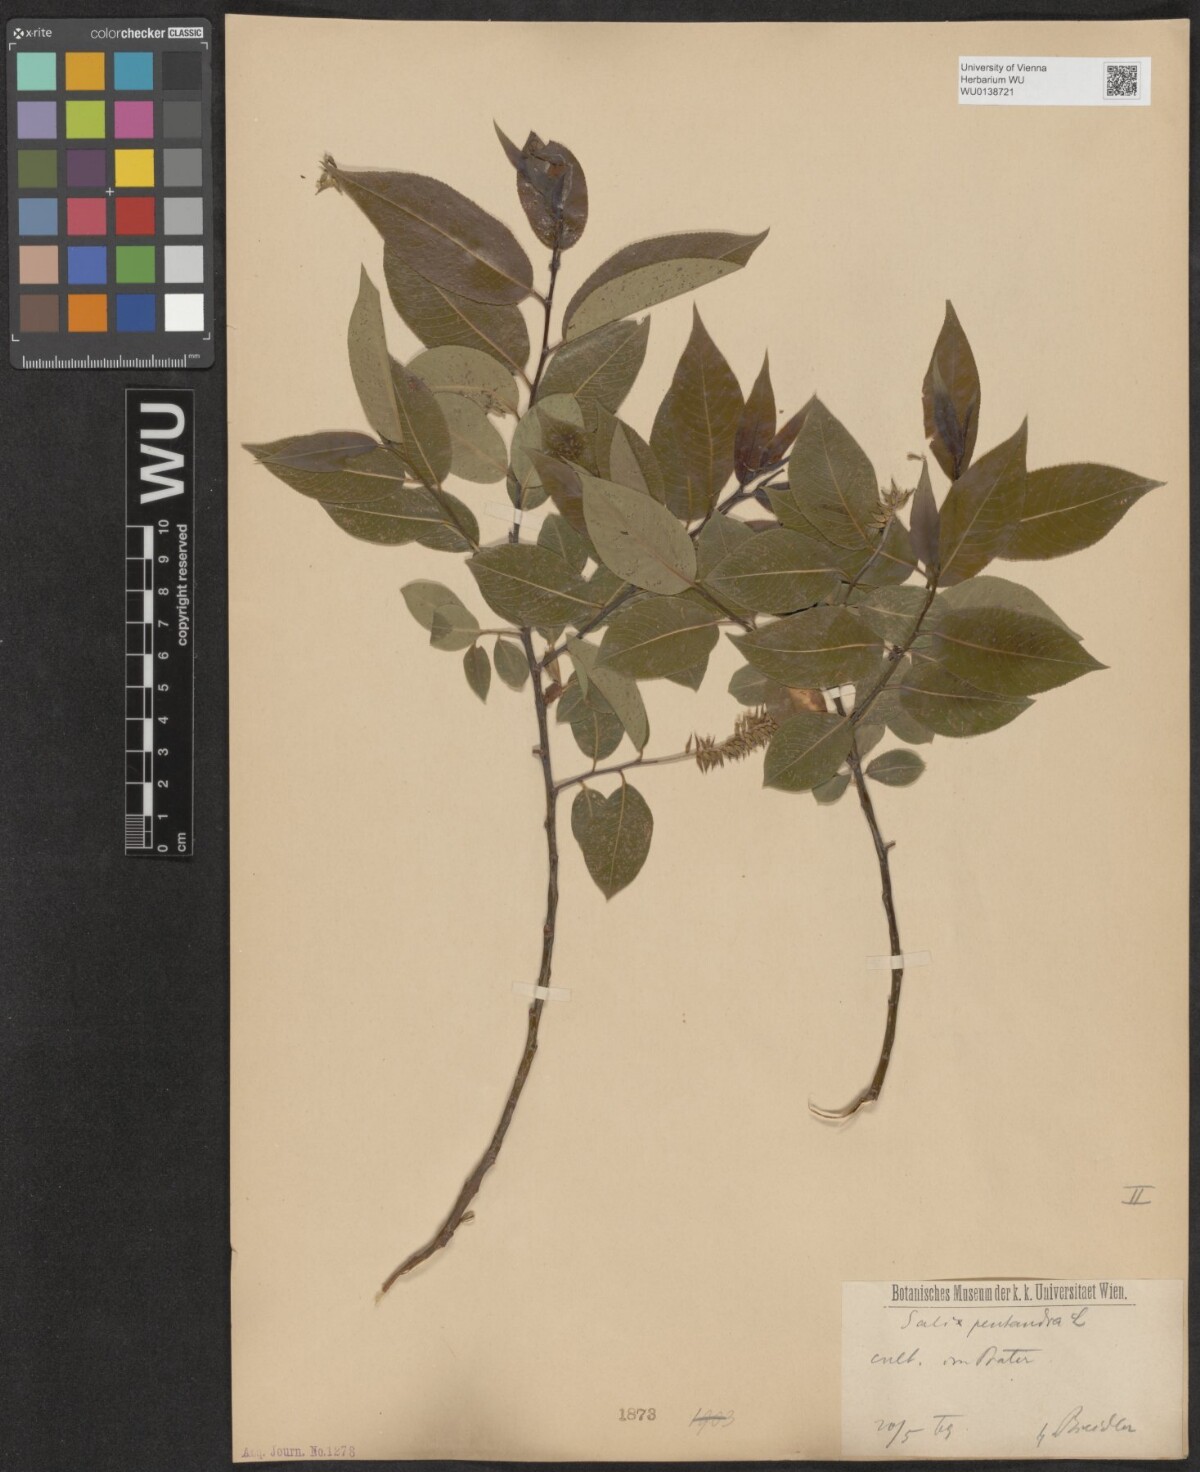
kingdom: Plantae
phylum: Tracheophyta
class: Magnoliopsida
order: Malpighiales
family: Salicaceae
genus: Salix
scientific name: Salix pentandra
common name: Bay willow
